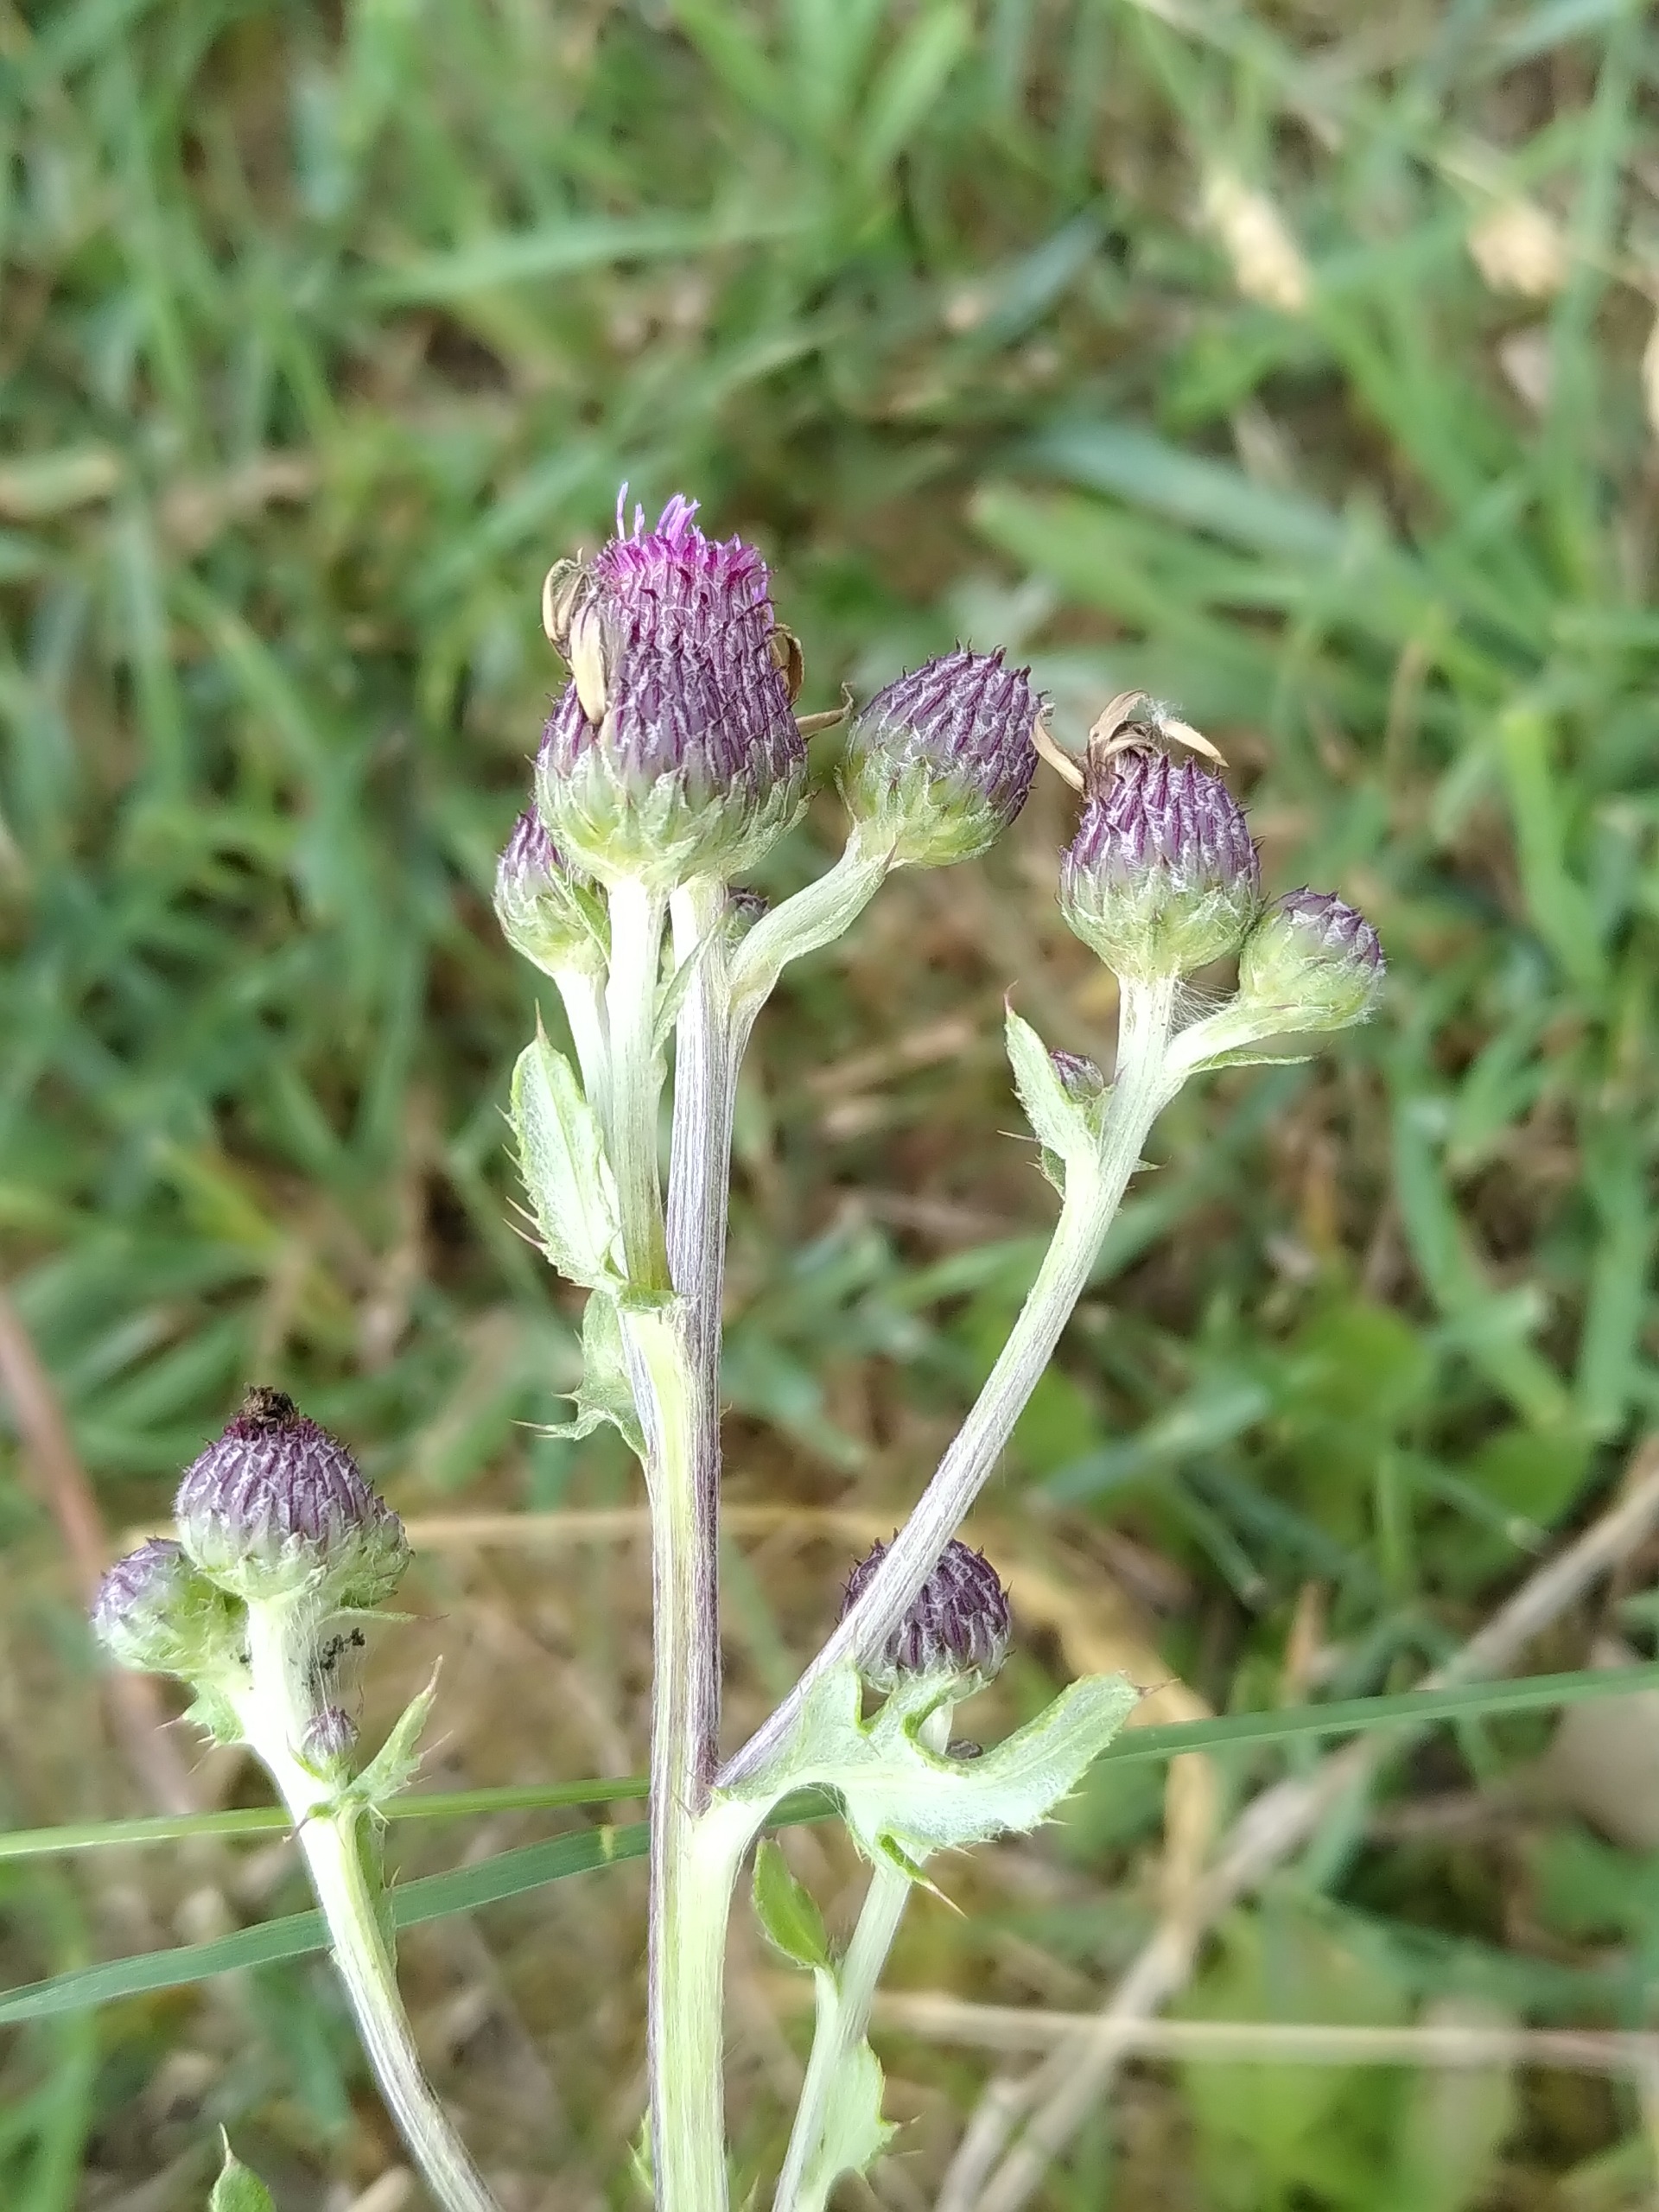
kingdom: Plantae
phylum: Tracheophyta
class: Magnoliopsida
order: Asterales
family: Asteraceae
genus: Cirsium
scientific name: Cirsium arvense
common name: Ager-tidsel
